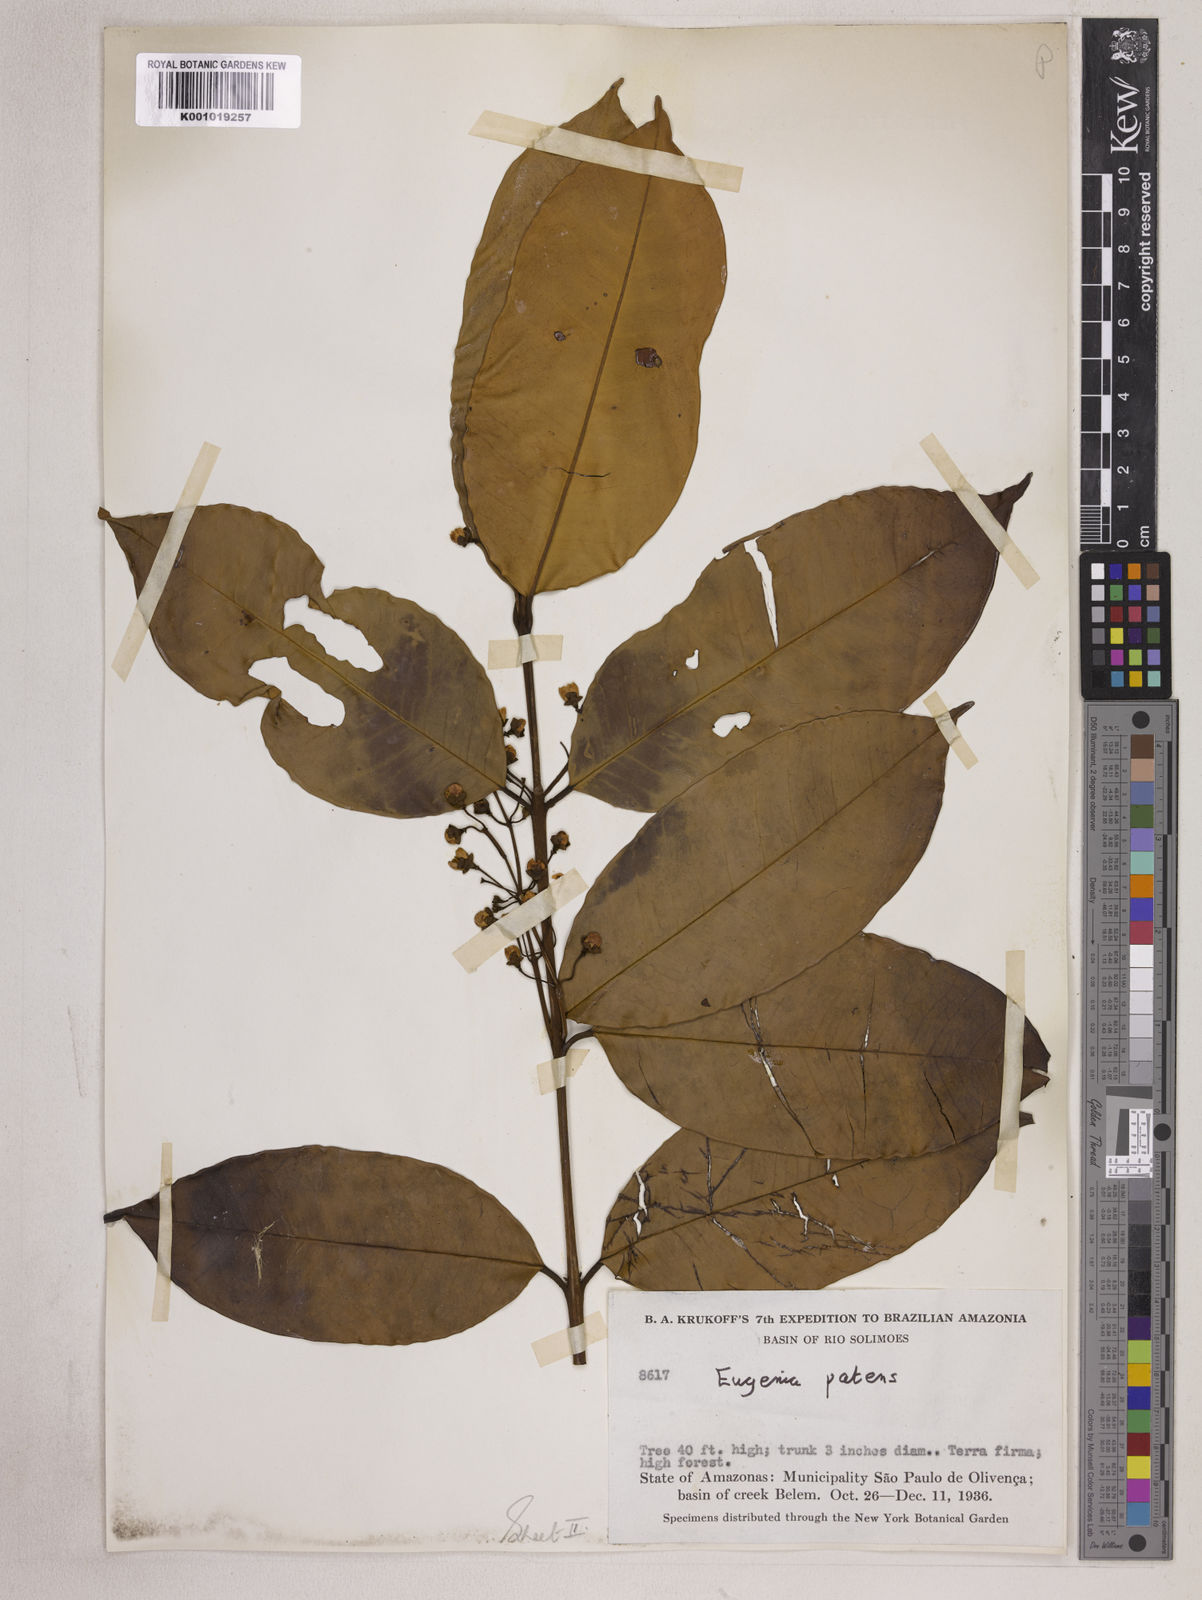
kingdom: Plantae
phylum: Tracheophyta
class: Magnoliopsida
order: Myrtales
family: Myrtaceae
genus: Eugenia
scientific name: Eugenia patens
